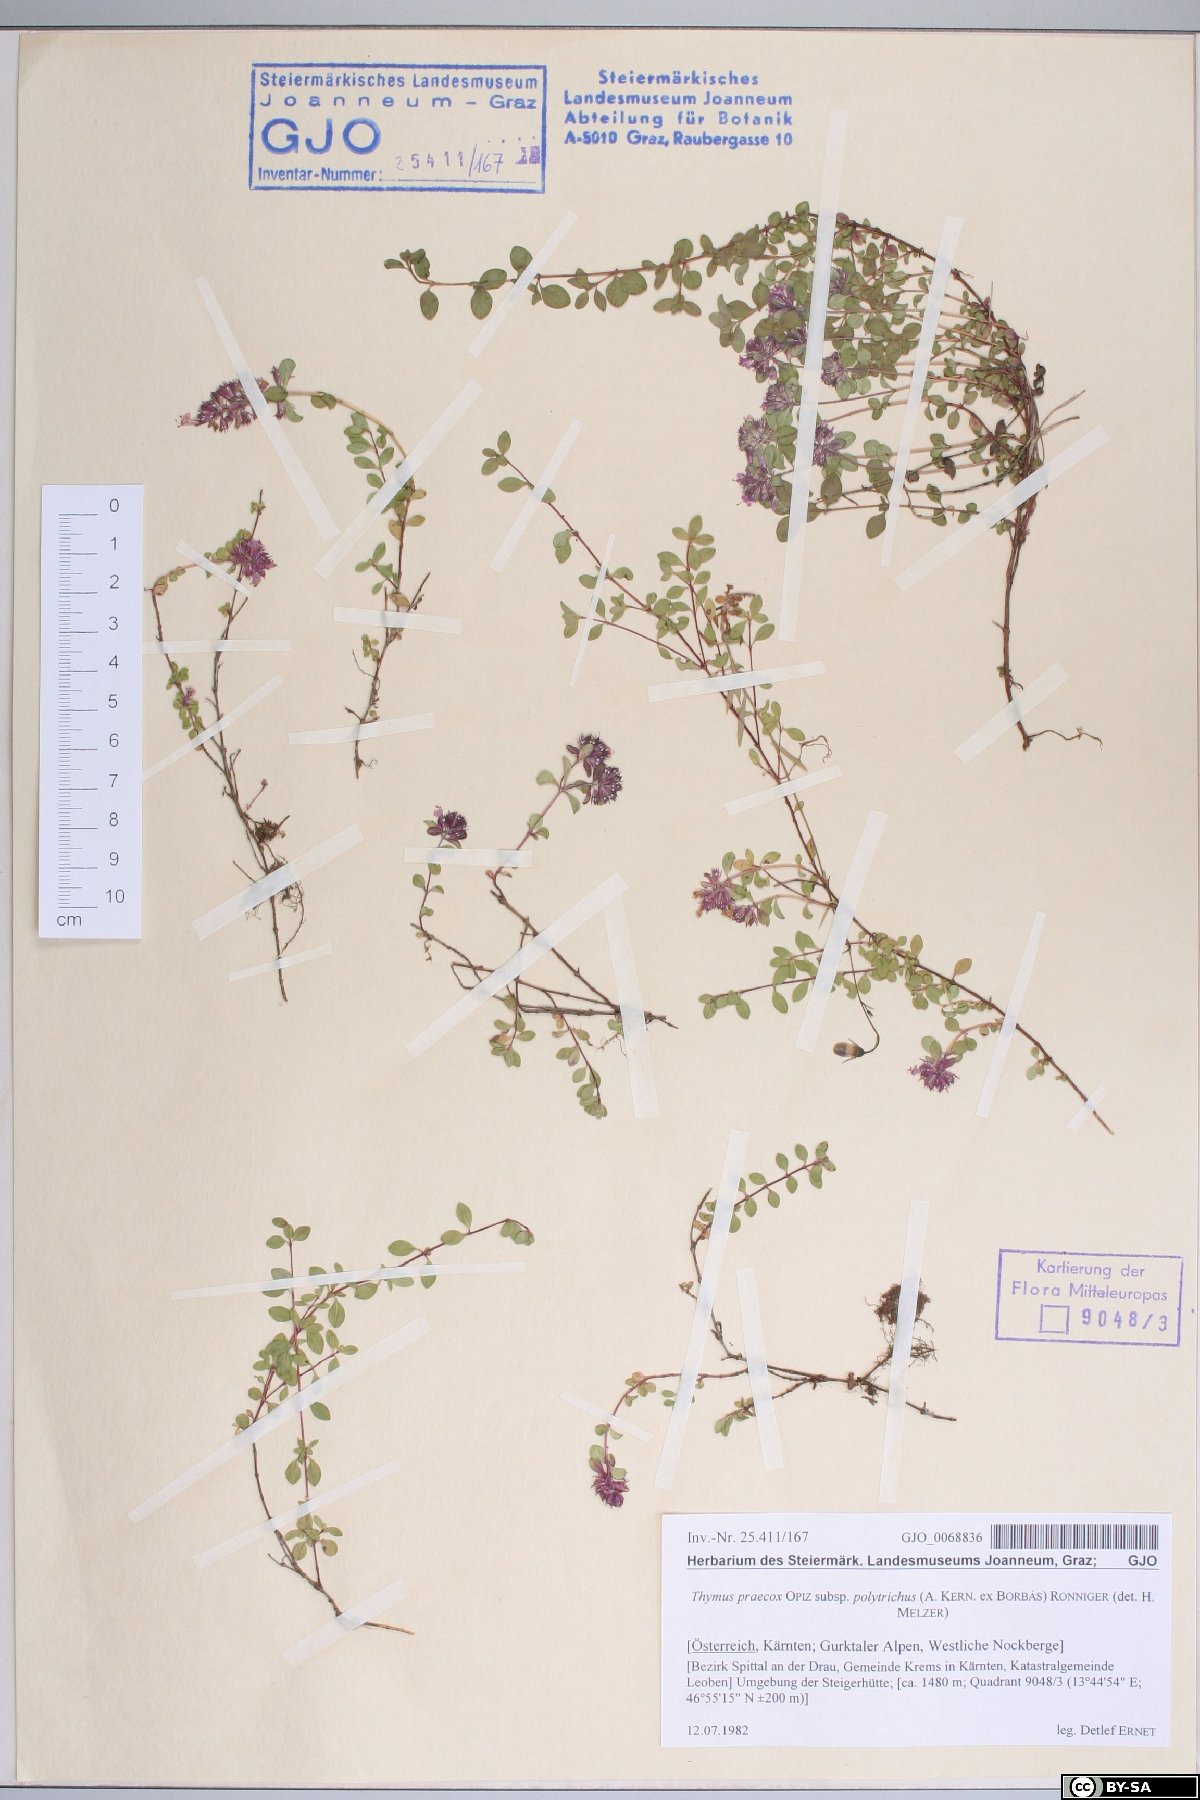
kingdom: Plantae
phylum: Tracheophyta
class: Magnoliopsida
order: Lamiales
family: Lamiaceae
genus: Thymus
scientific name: Thymus praecox
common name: Wild thyme
